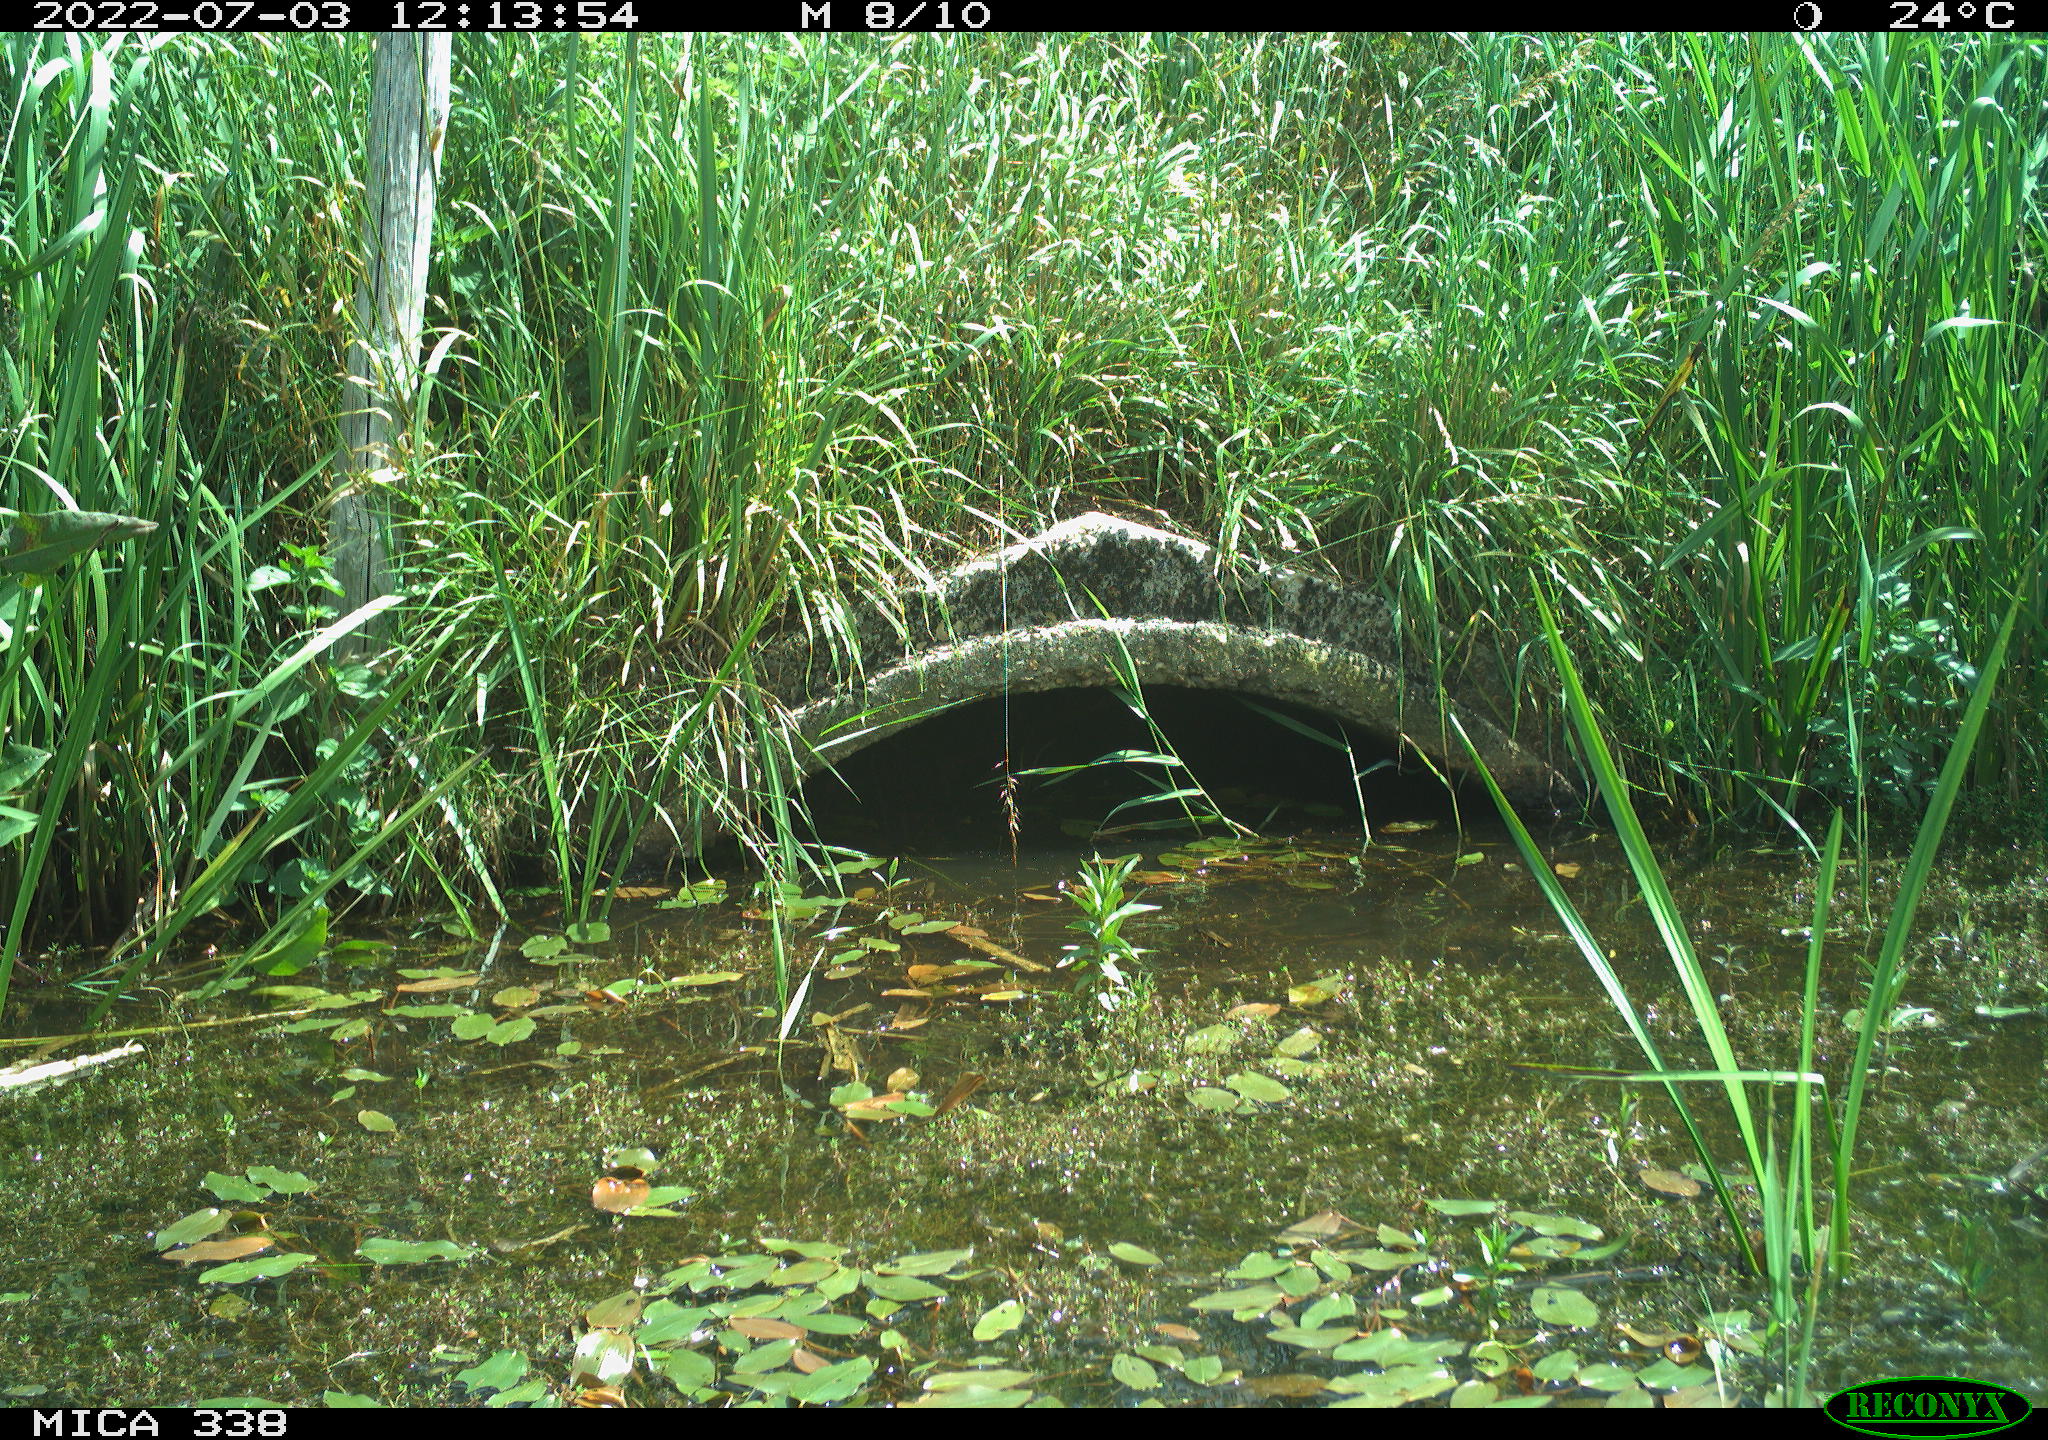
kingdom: Animalia
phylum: Chordata
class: Aves
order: Anseriformes
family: Anatidae
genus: Anas
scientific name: Anas platyrhynchos
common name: Mallard
